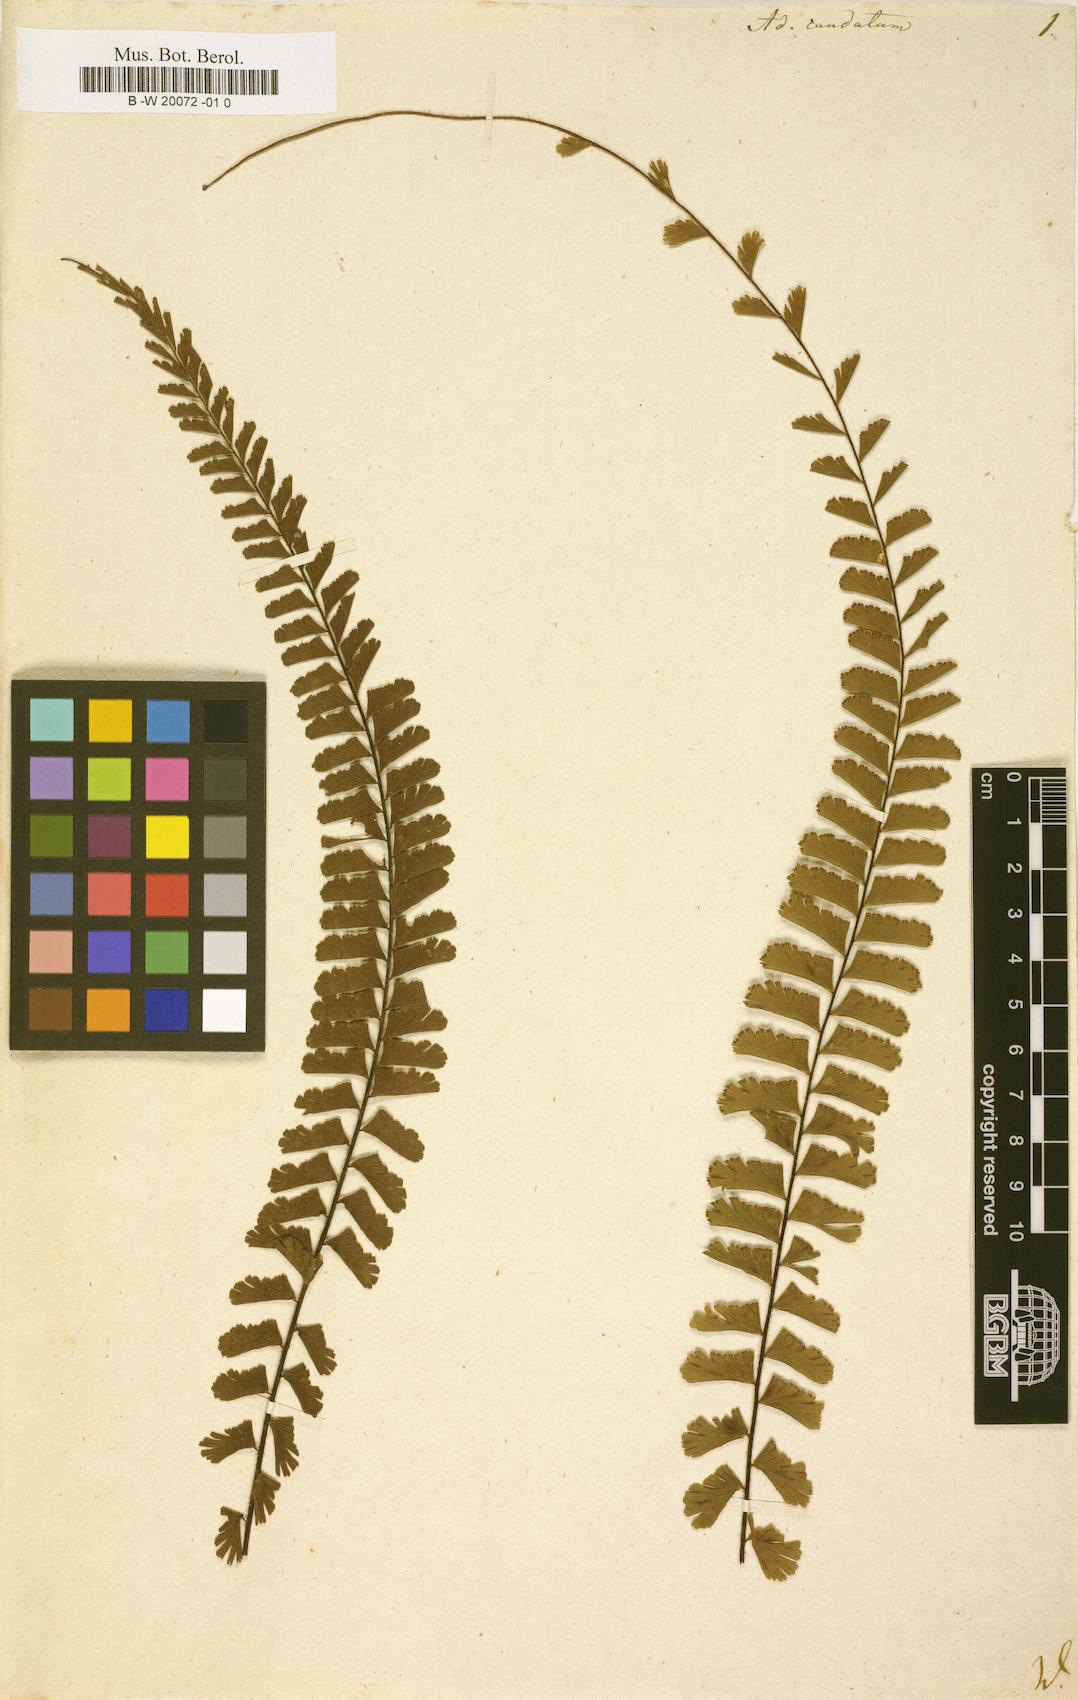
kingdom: Plantae
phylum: Tracheophyta
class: Polypodiopsida
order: Polypodiales
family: Pteridaceae
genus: Adiantum
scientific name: Adiantum caudatum
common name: Tailed maidenhair
